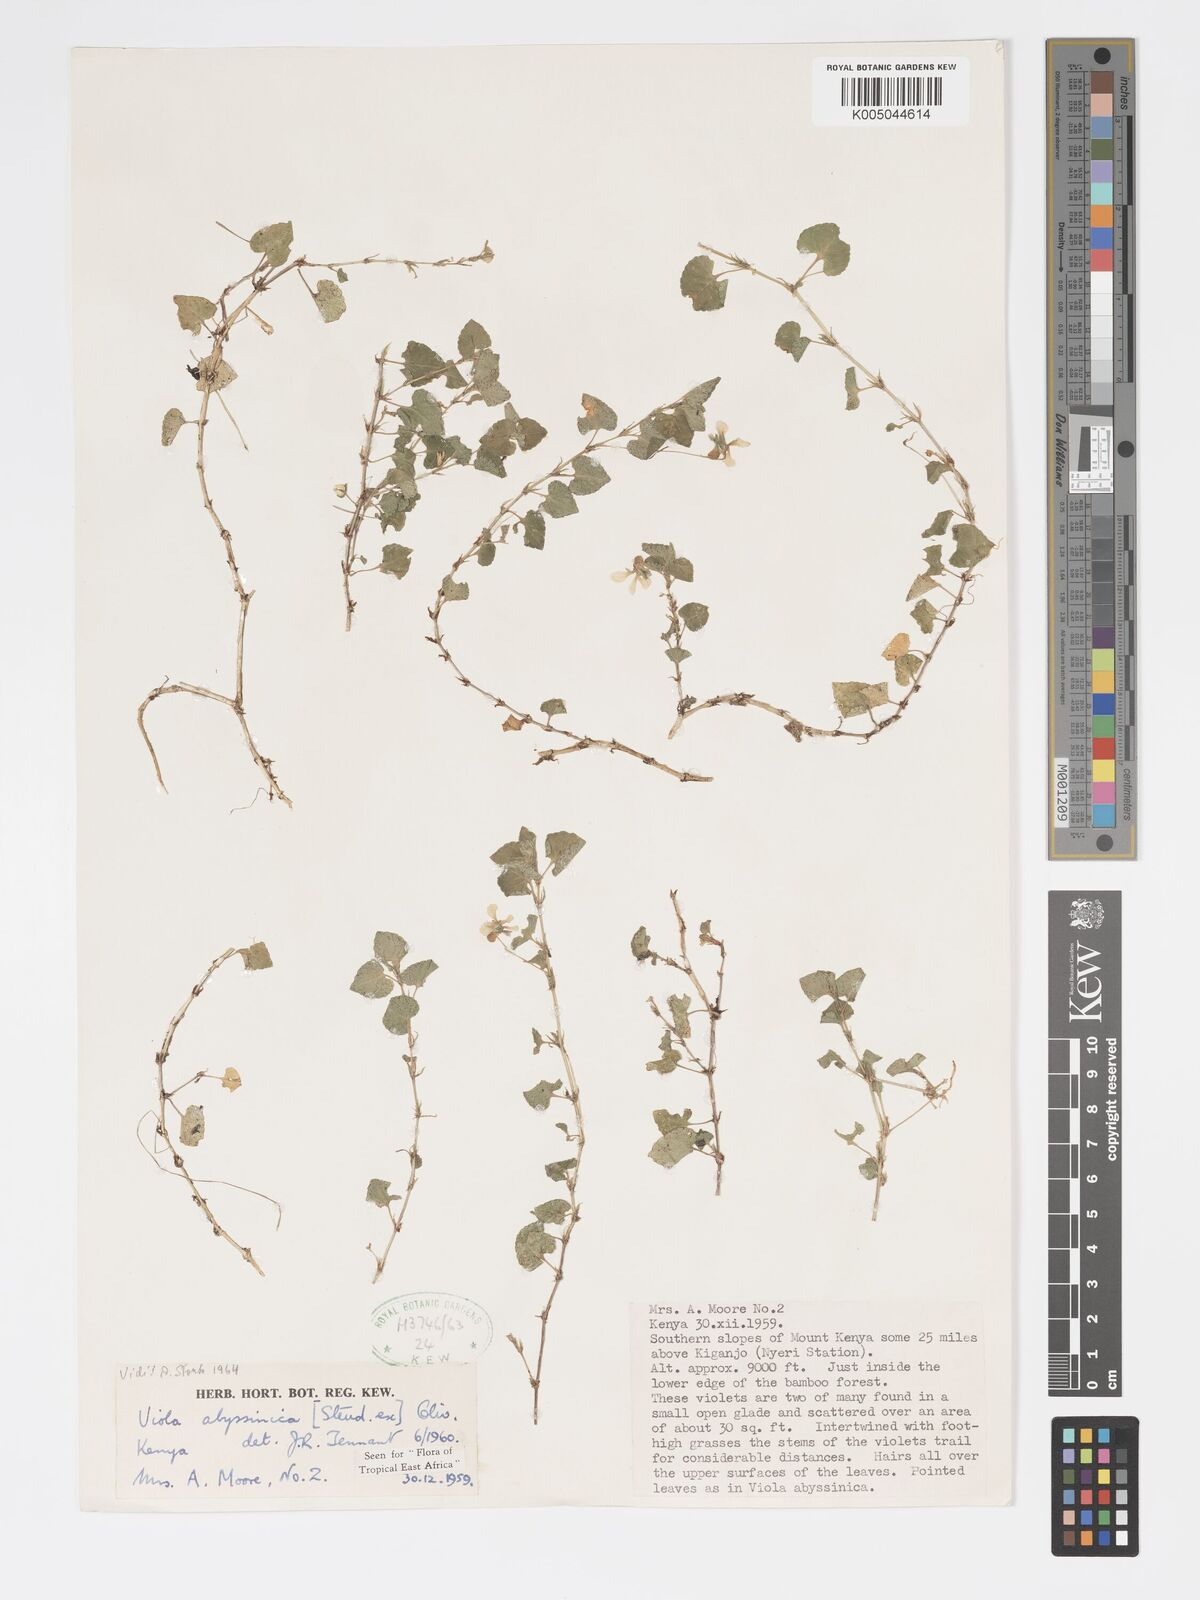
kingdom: Plantae
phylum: Tracheophyta
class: Magnoliopsida
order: Malpighiales
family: Violaceae
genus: Viola
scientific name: Viola abyssinica
